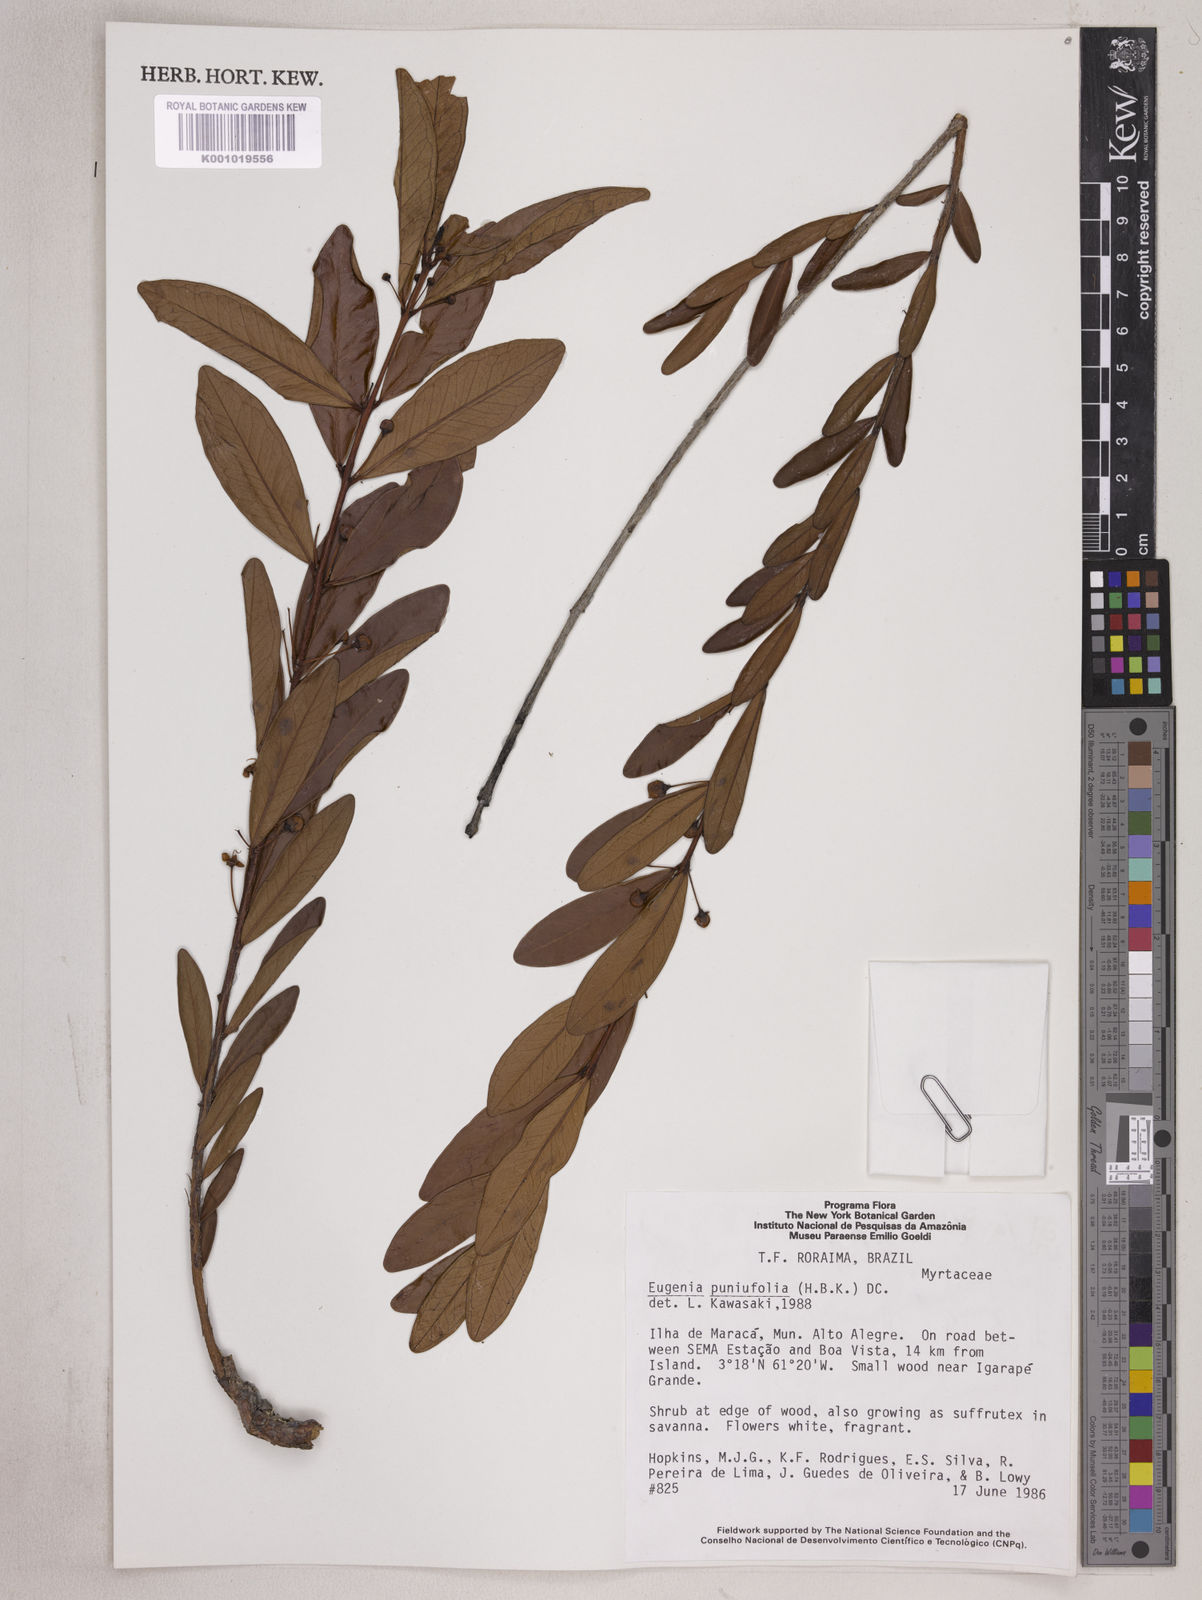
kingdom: Plantae
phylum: Tracheophyta
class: Magnoliopsida
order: Myrtales
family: Myrtaceae
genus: Eugenia
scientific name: Eugenia punicifolia
